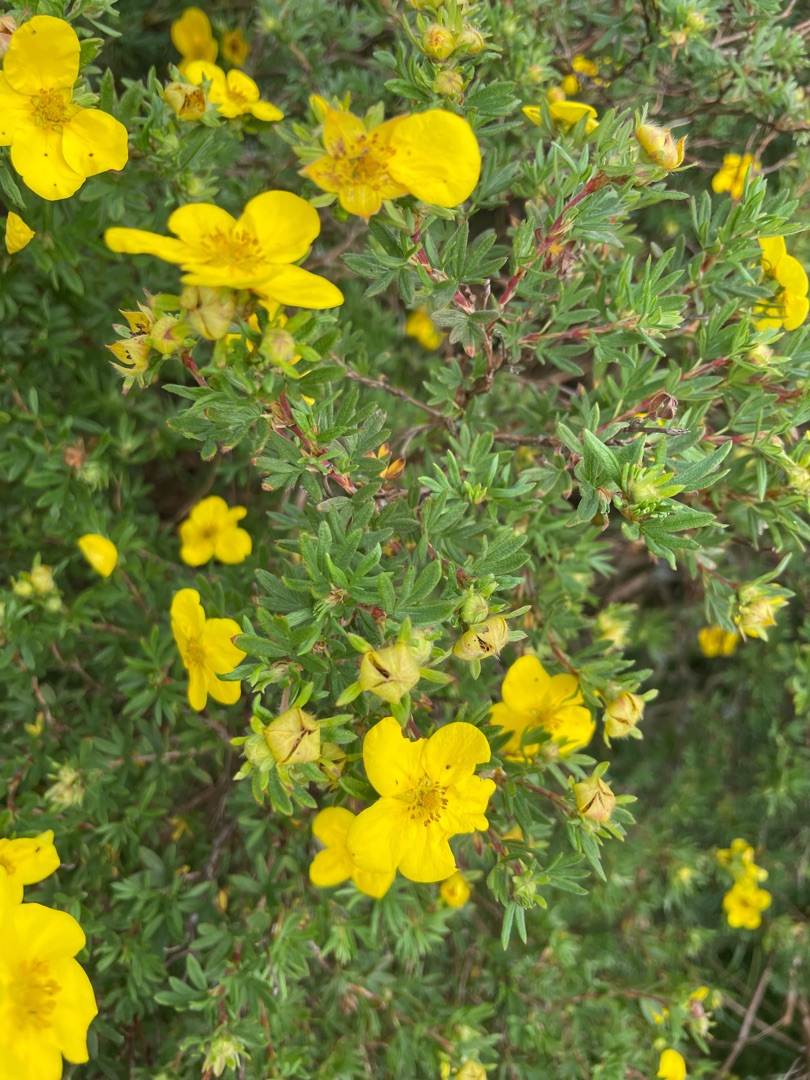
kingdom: Plantae
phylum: Tracheophyta
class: Magnoliopsida
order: Rosales
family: Rosaceae
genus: Dasiphora
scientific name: Dasiphora fruticosa
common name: Buskpotentil
